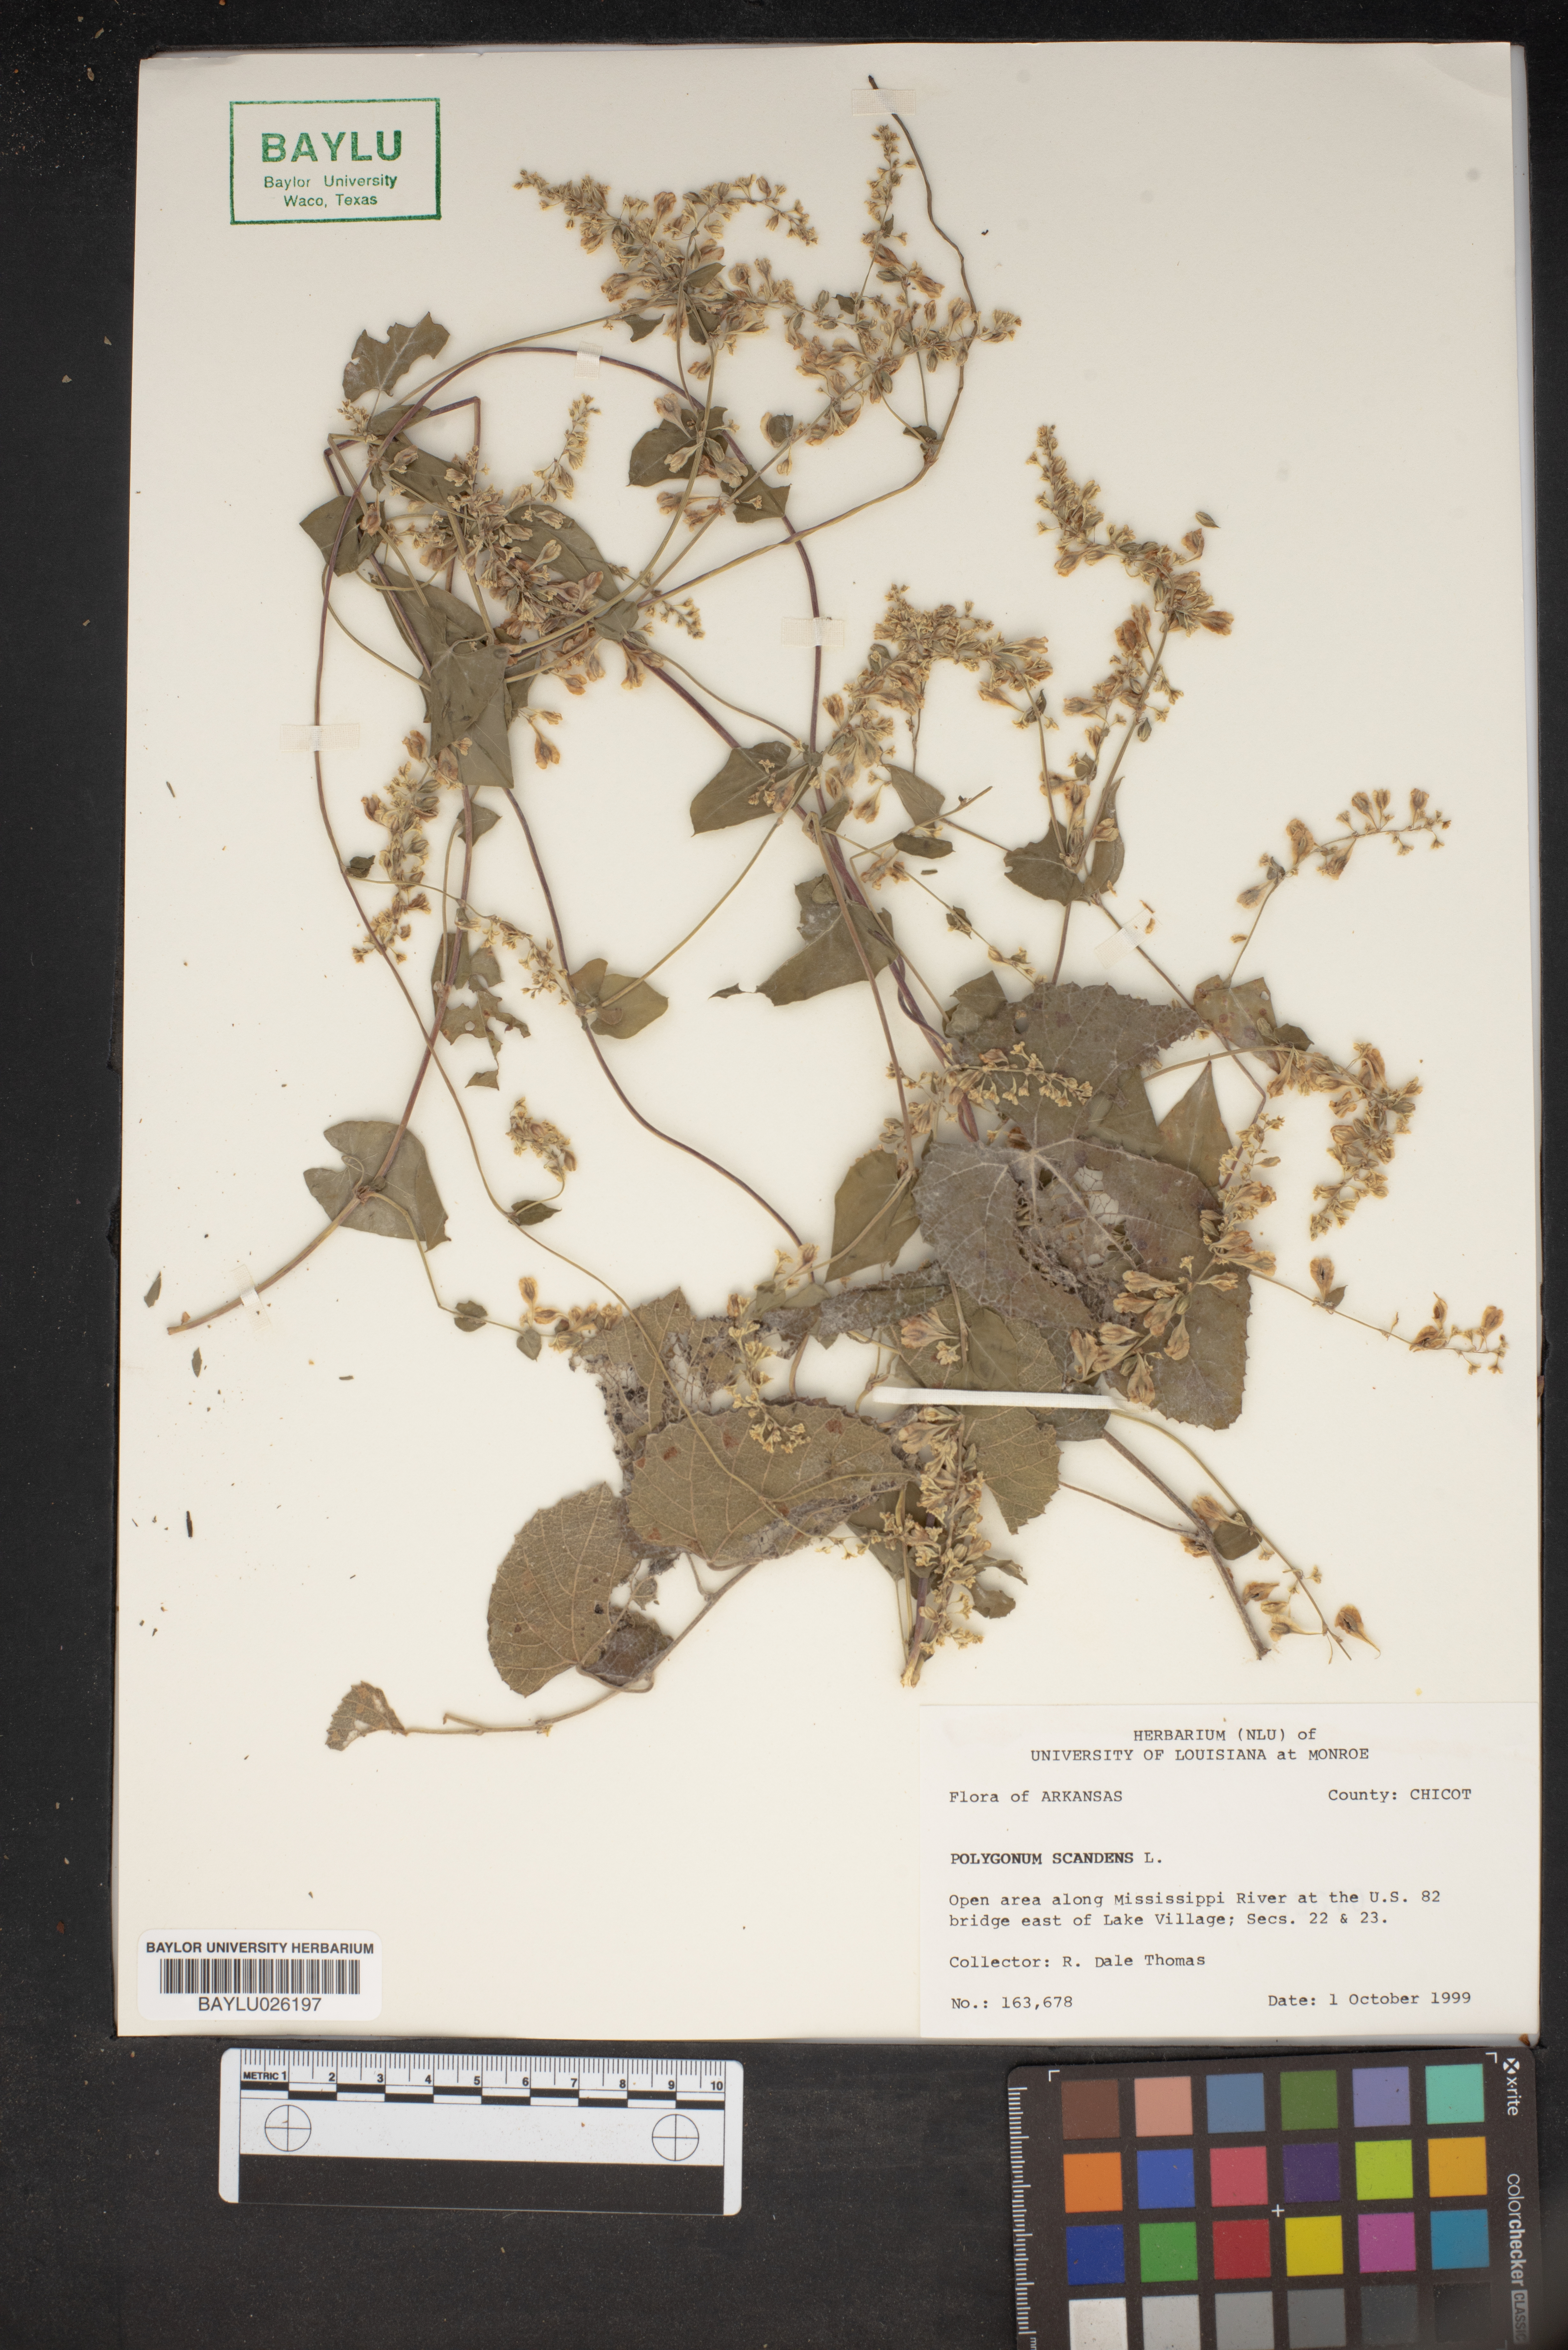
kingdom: Plantae
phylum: Tracheophyta
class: Magnoliopsida
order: Caryophyllales
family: Polygonaceae
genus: Fallopia
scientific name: Fallopia scandens
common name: Climbing false buckwheat
